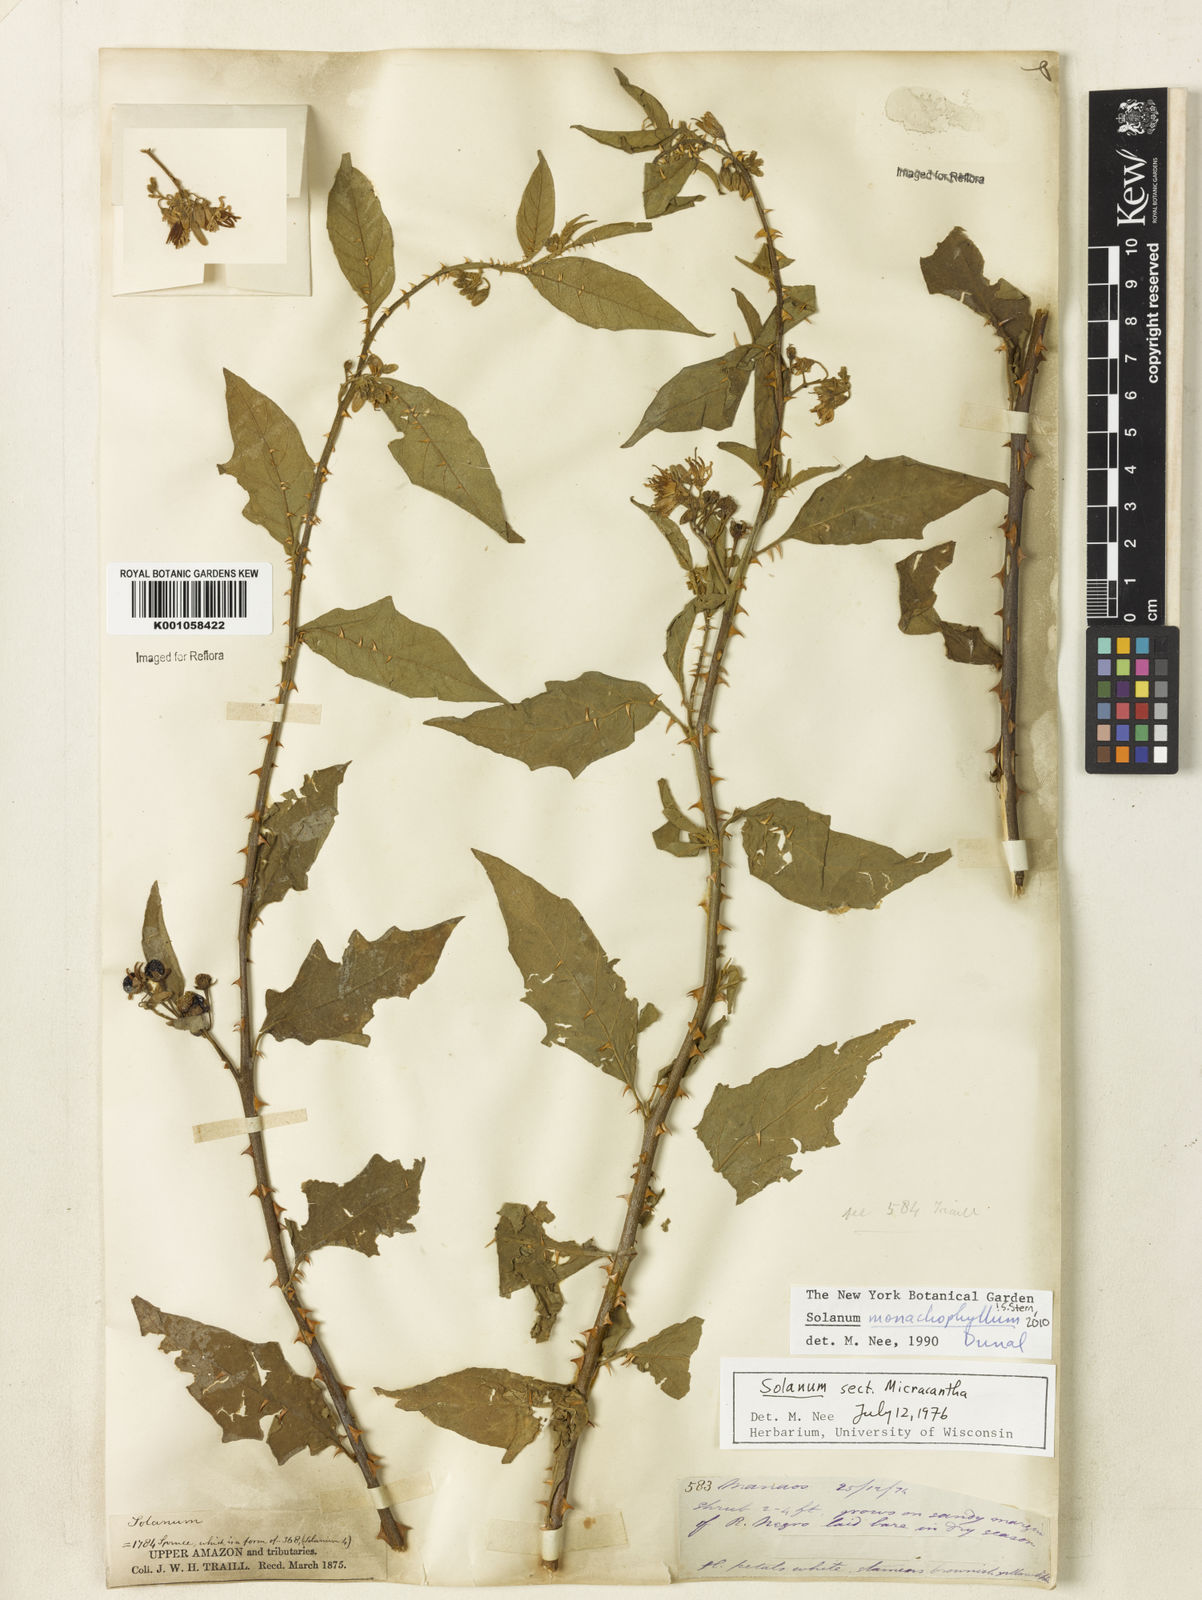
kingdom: Plantae
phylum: Tracheophyta
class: Magnoliopsida
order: Solanales
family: Solanaceae
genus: Solanum
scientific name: Solanum monachophyllum
